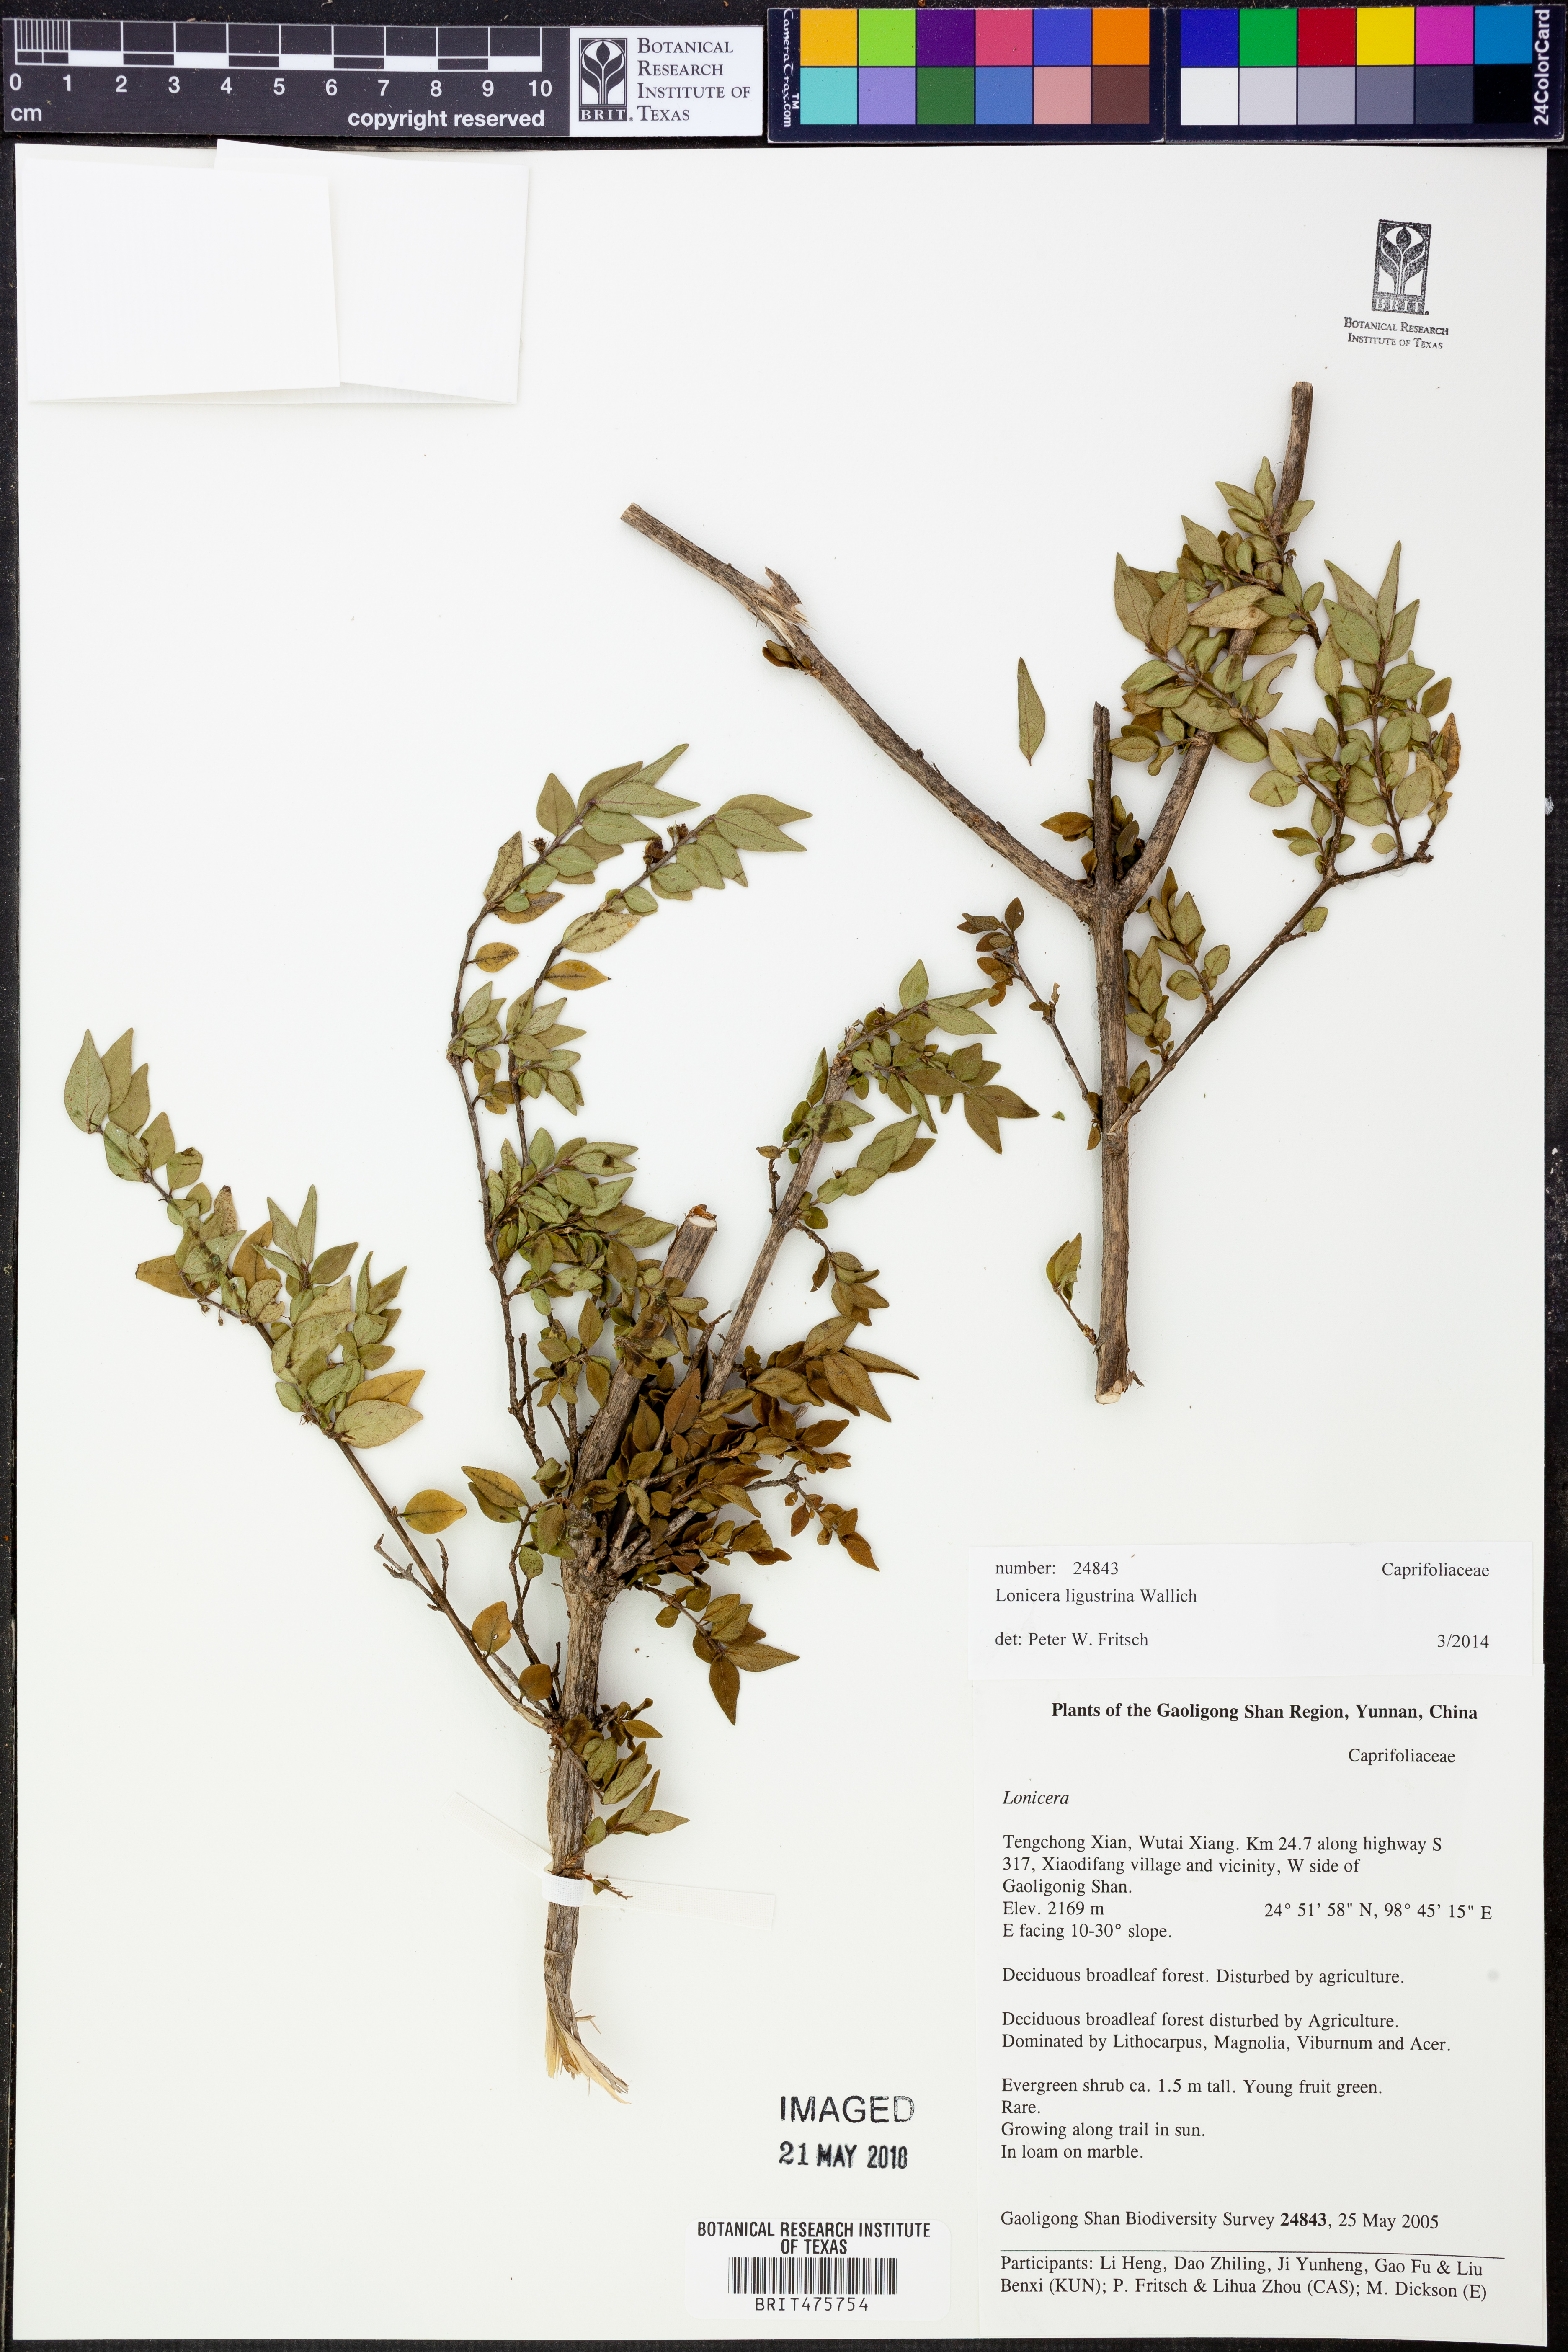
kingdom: Plantae
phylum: Tracheophyta
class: Magnoliopsida
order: Dipsacales
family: Caprifoliaceae
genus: Lonicera
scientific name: Lonicera ligustrina
